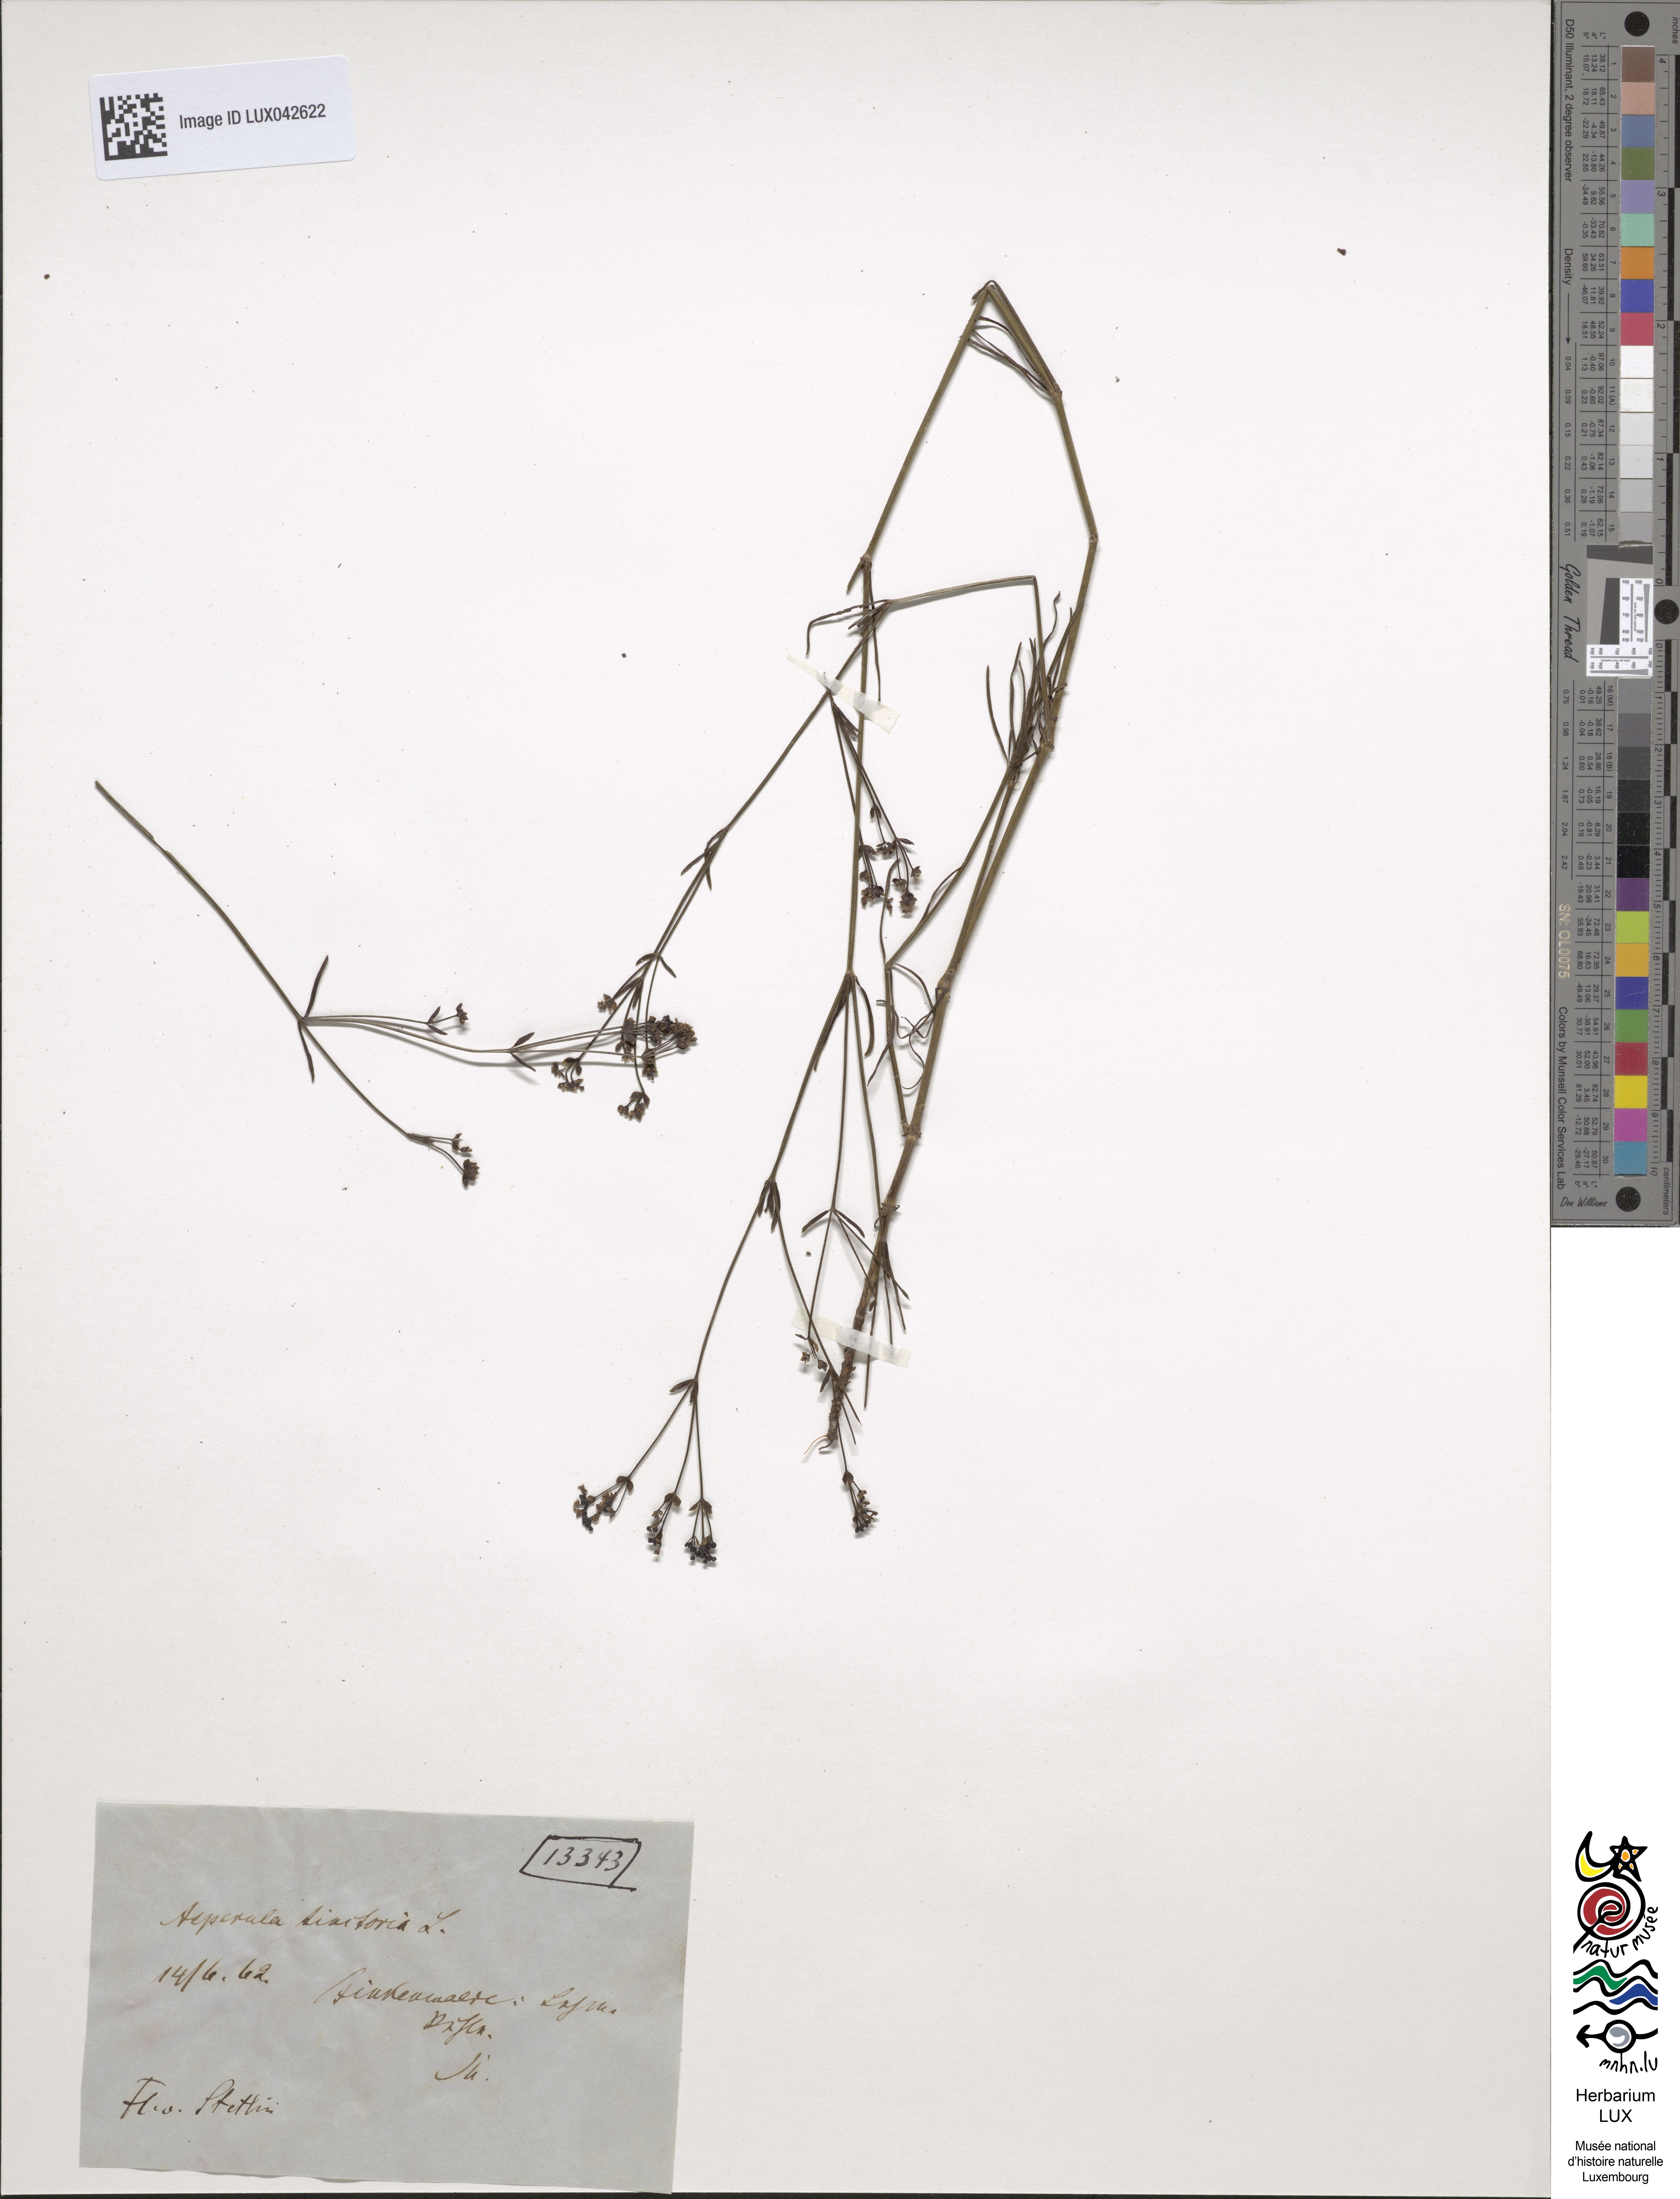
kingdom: Plantae
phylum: Tracheophyta
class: Magnoliopsida
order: Gentianales
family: Rubiaceae
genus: Asperula
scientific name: Asperula tinctoria
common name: Dyer's woodruff
